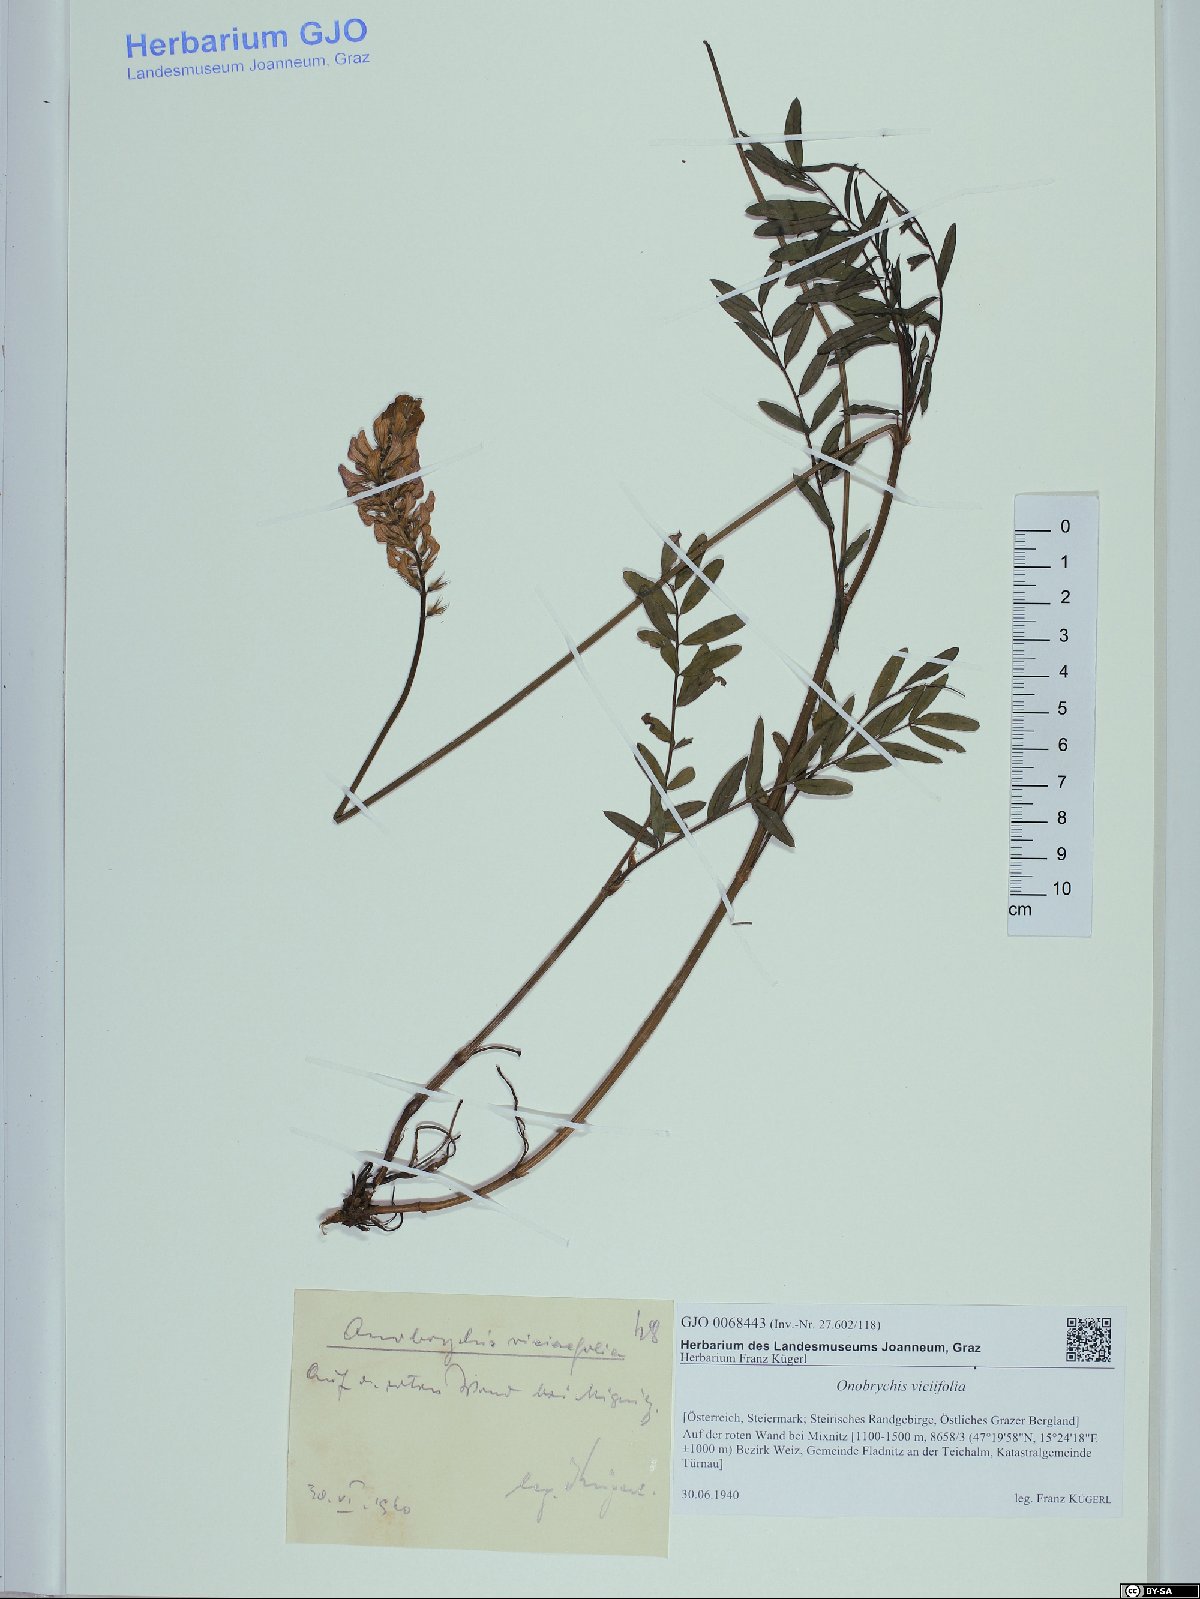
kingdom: Plantae
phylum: Tracheophyta
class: Magnoliopsida
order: Fabales
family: Fabaceae
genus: Onobrychis
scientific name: Onobrychis viciifolia
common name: Sainfoin
